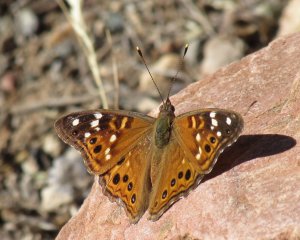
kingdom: Animalia
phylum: Arthropoda
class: Insecta
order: Lepidoptera
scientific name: Lepidoptera
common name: Butterflies
